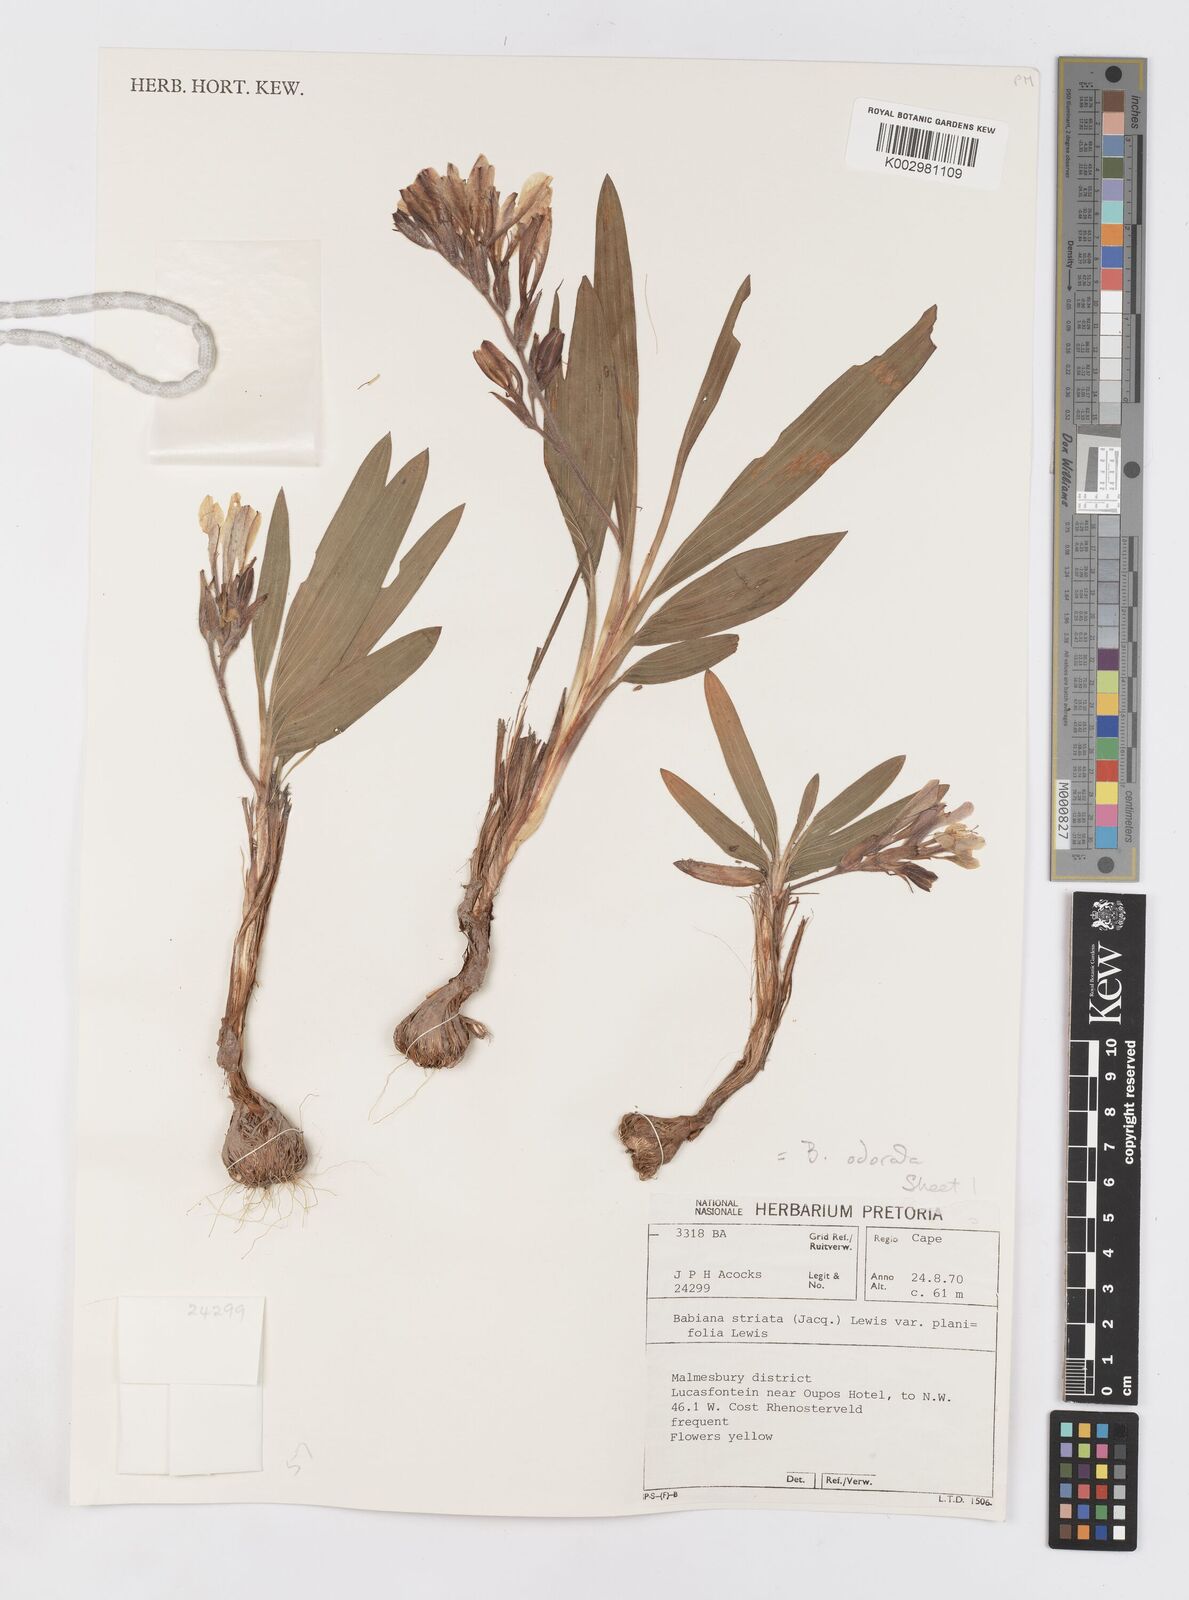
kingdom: Plantae
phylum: Tracheophyta
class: Liliopsida
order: Asparagales
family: Iridaceae
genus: Babiana
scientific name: Babiana odorata
